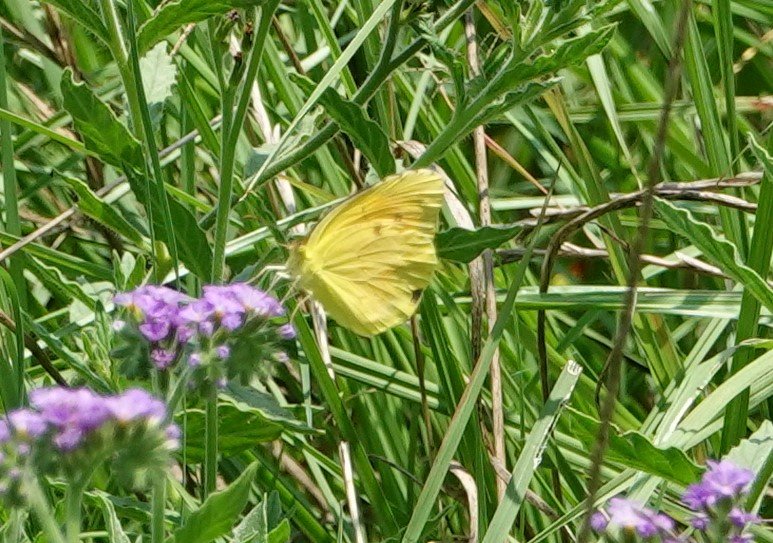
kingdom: Animalia
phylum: Arthropoda
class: Insecta
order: Lepidoptera
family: Pieridae
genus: Abaeis
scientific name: Abaeis nicippe
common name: Sleepy Orange
